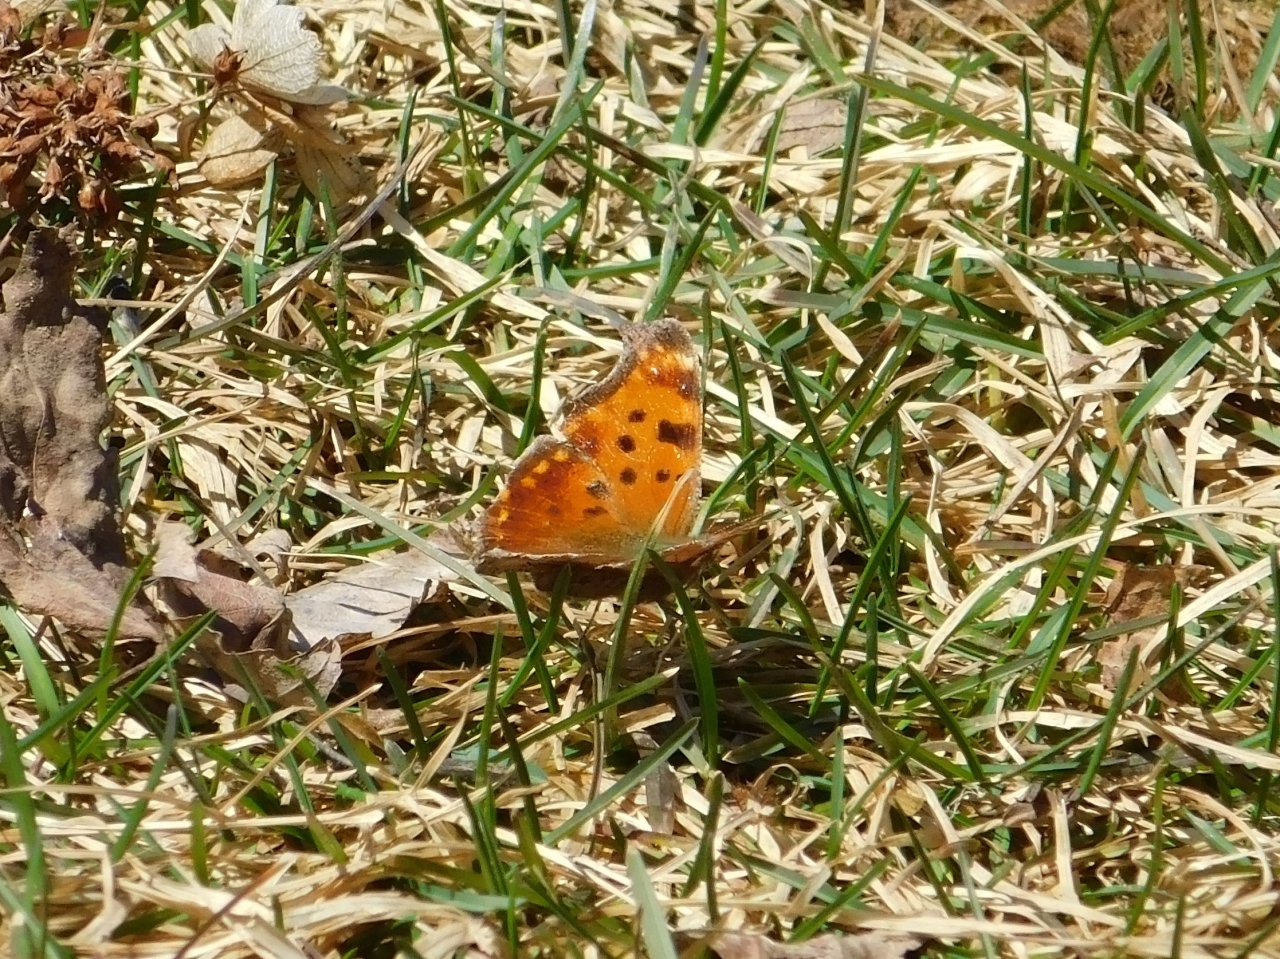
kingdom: Animalia
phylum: Arthropoda
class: Insecta
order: Lepidoptera
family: Nymphalidae
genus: Polygonia
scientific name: Polygonia comma
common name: Eastern Comma
